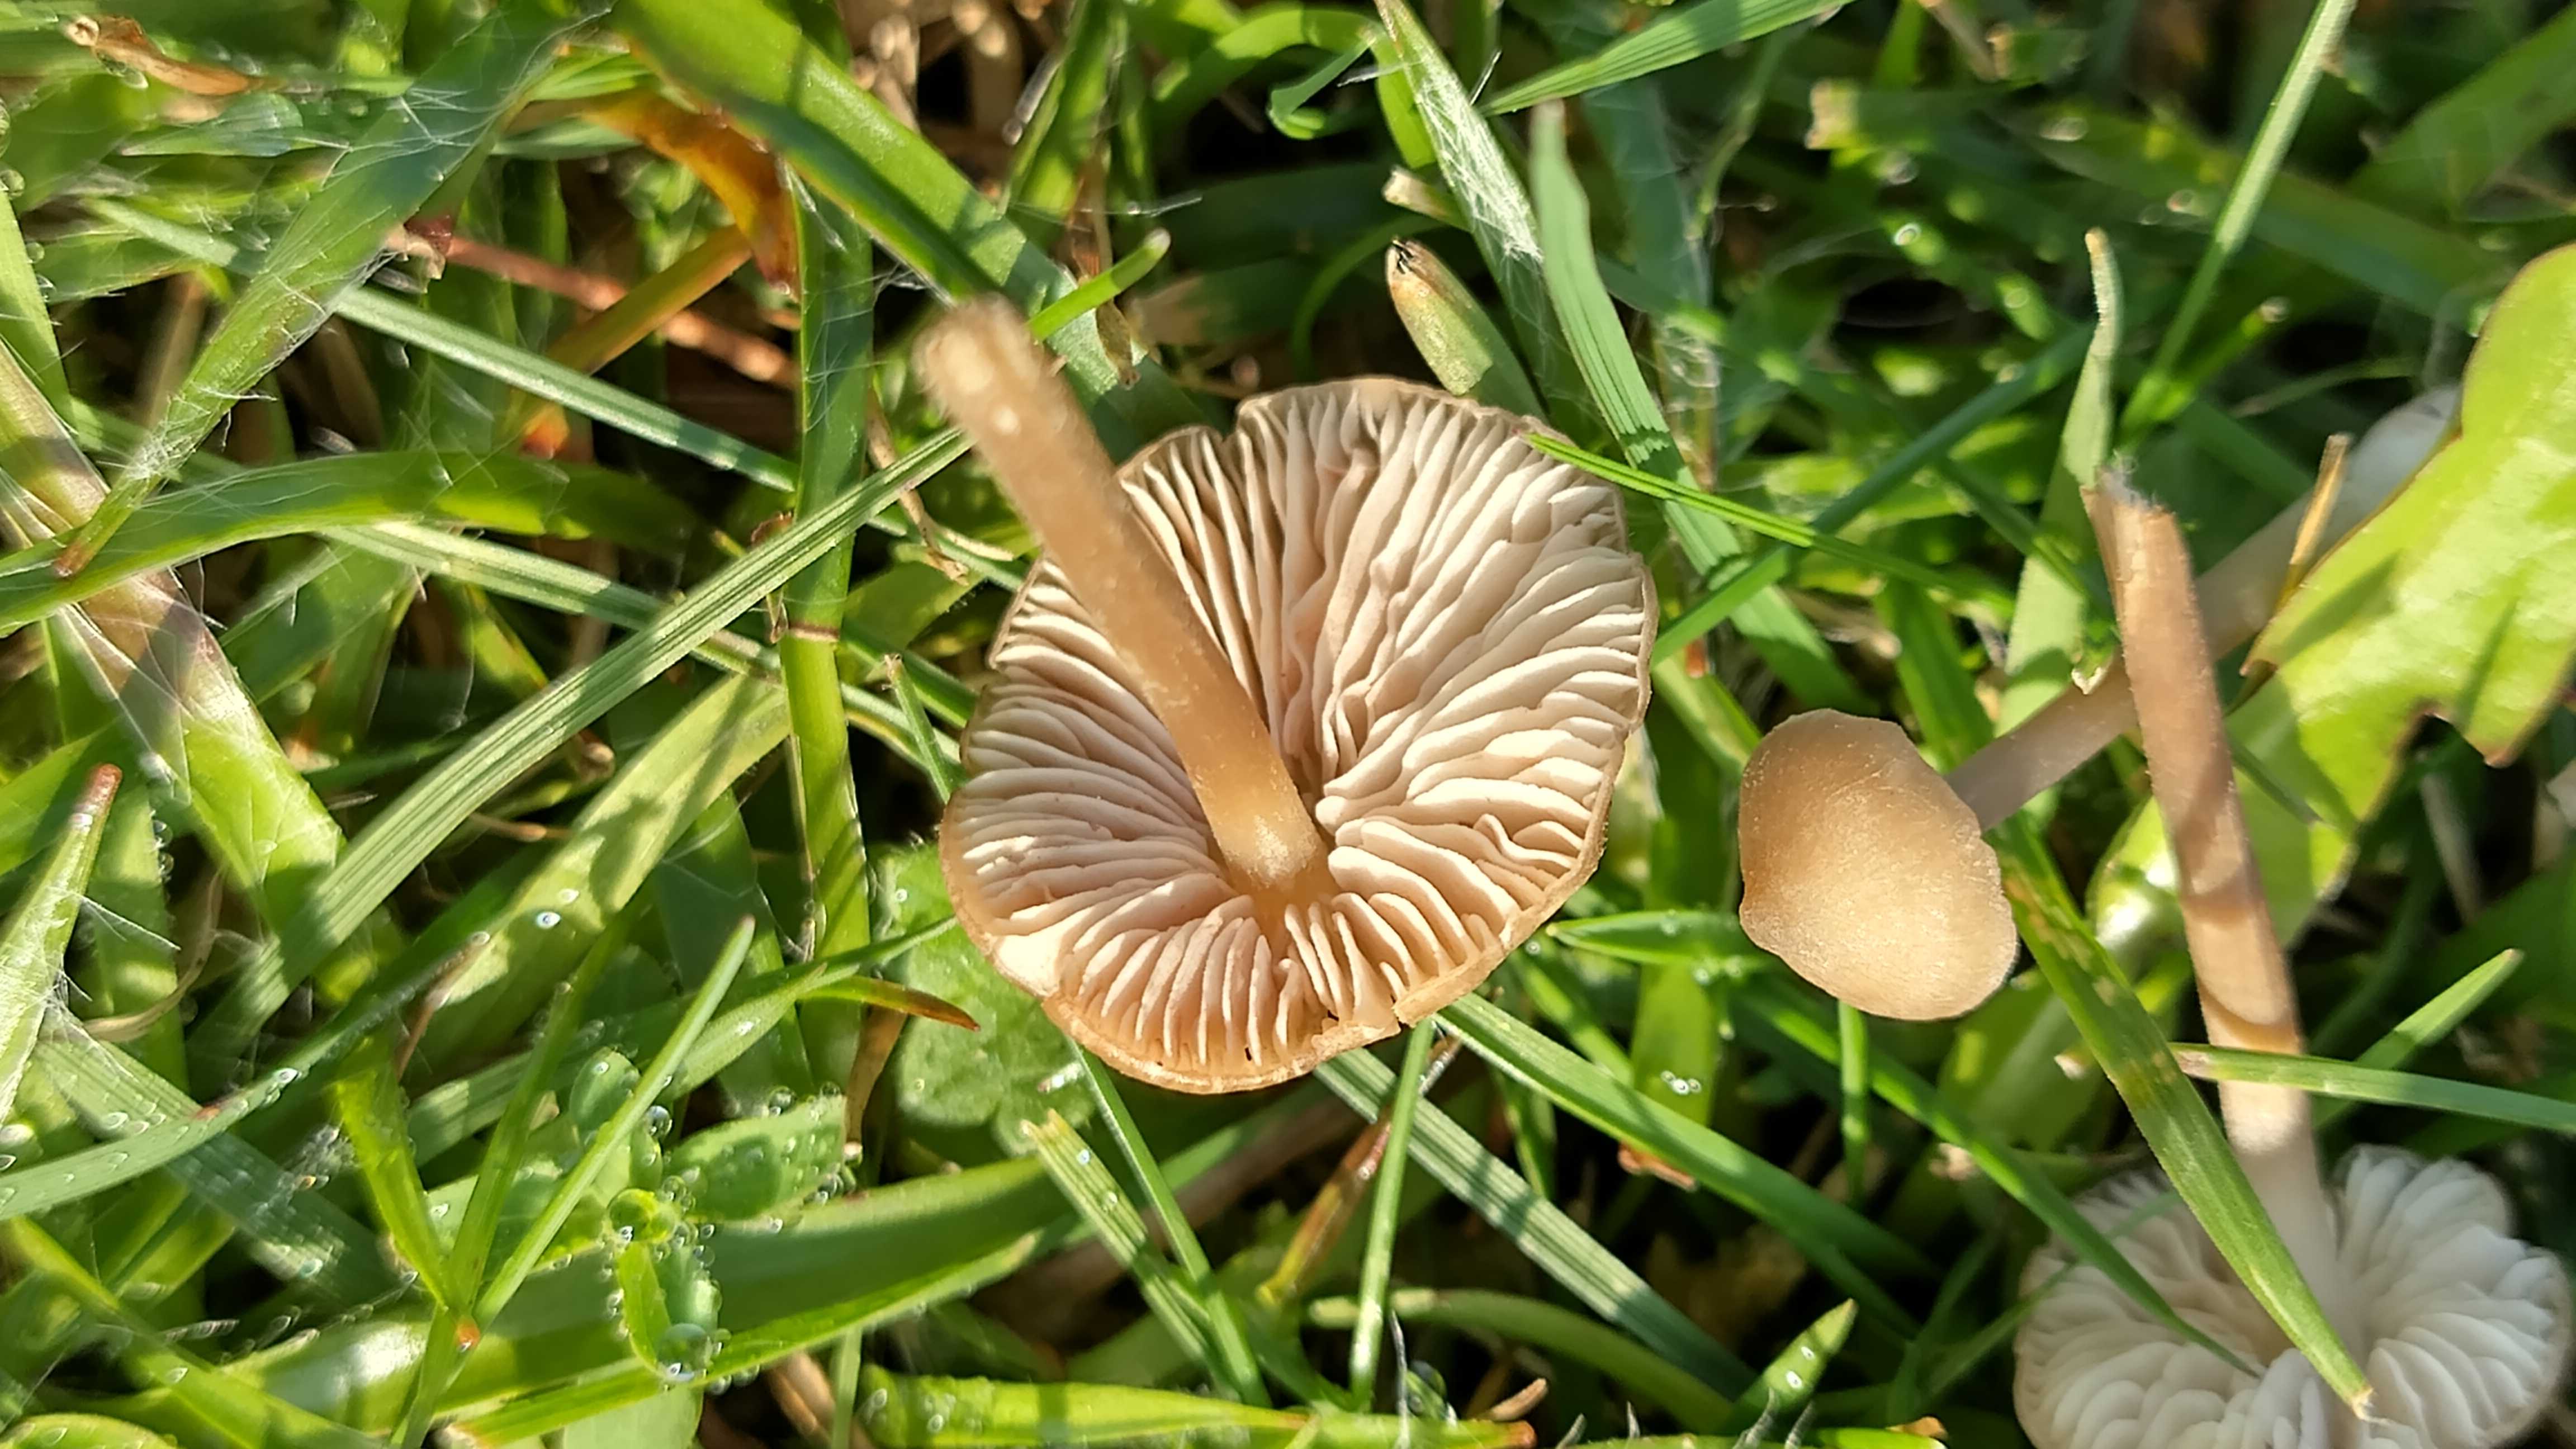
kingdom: Fungi
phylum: Basidiomycota
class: Agaricomycetes
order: Agaricales
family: Entolomataceae
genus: Entoloma
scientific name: Entoloma
